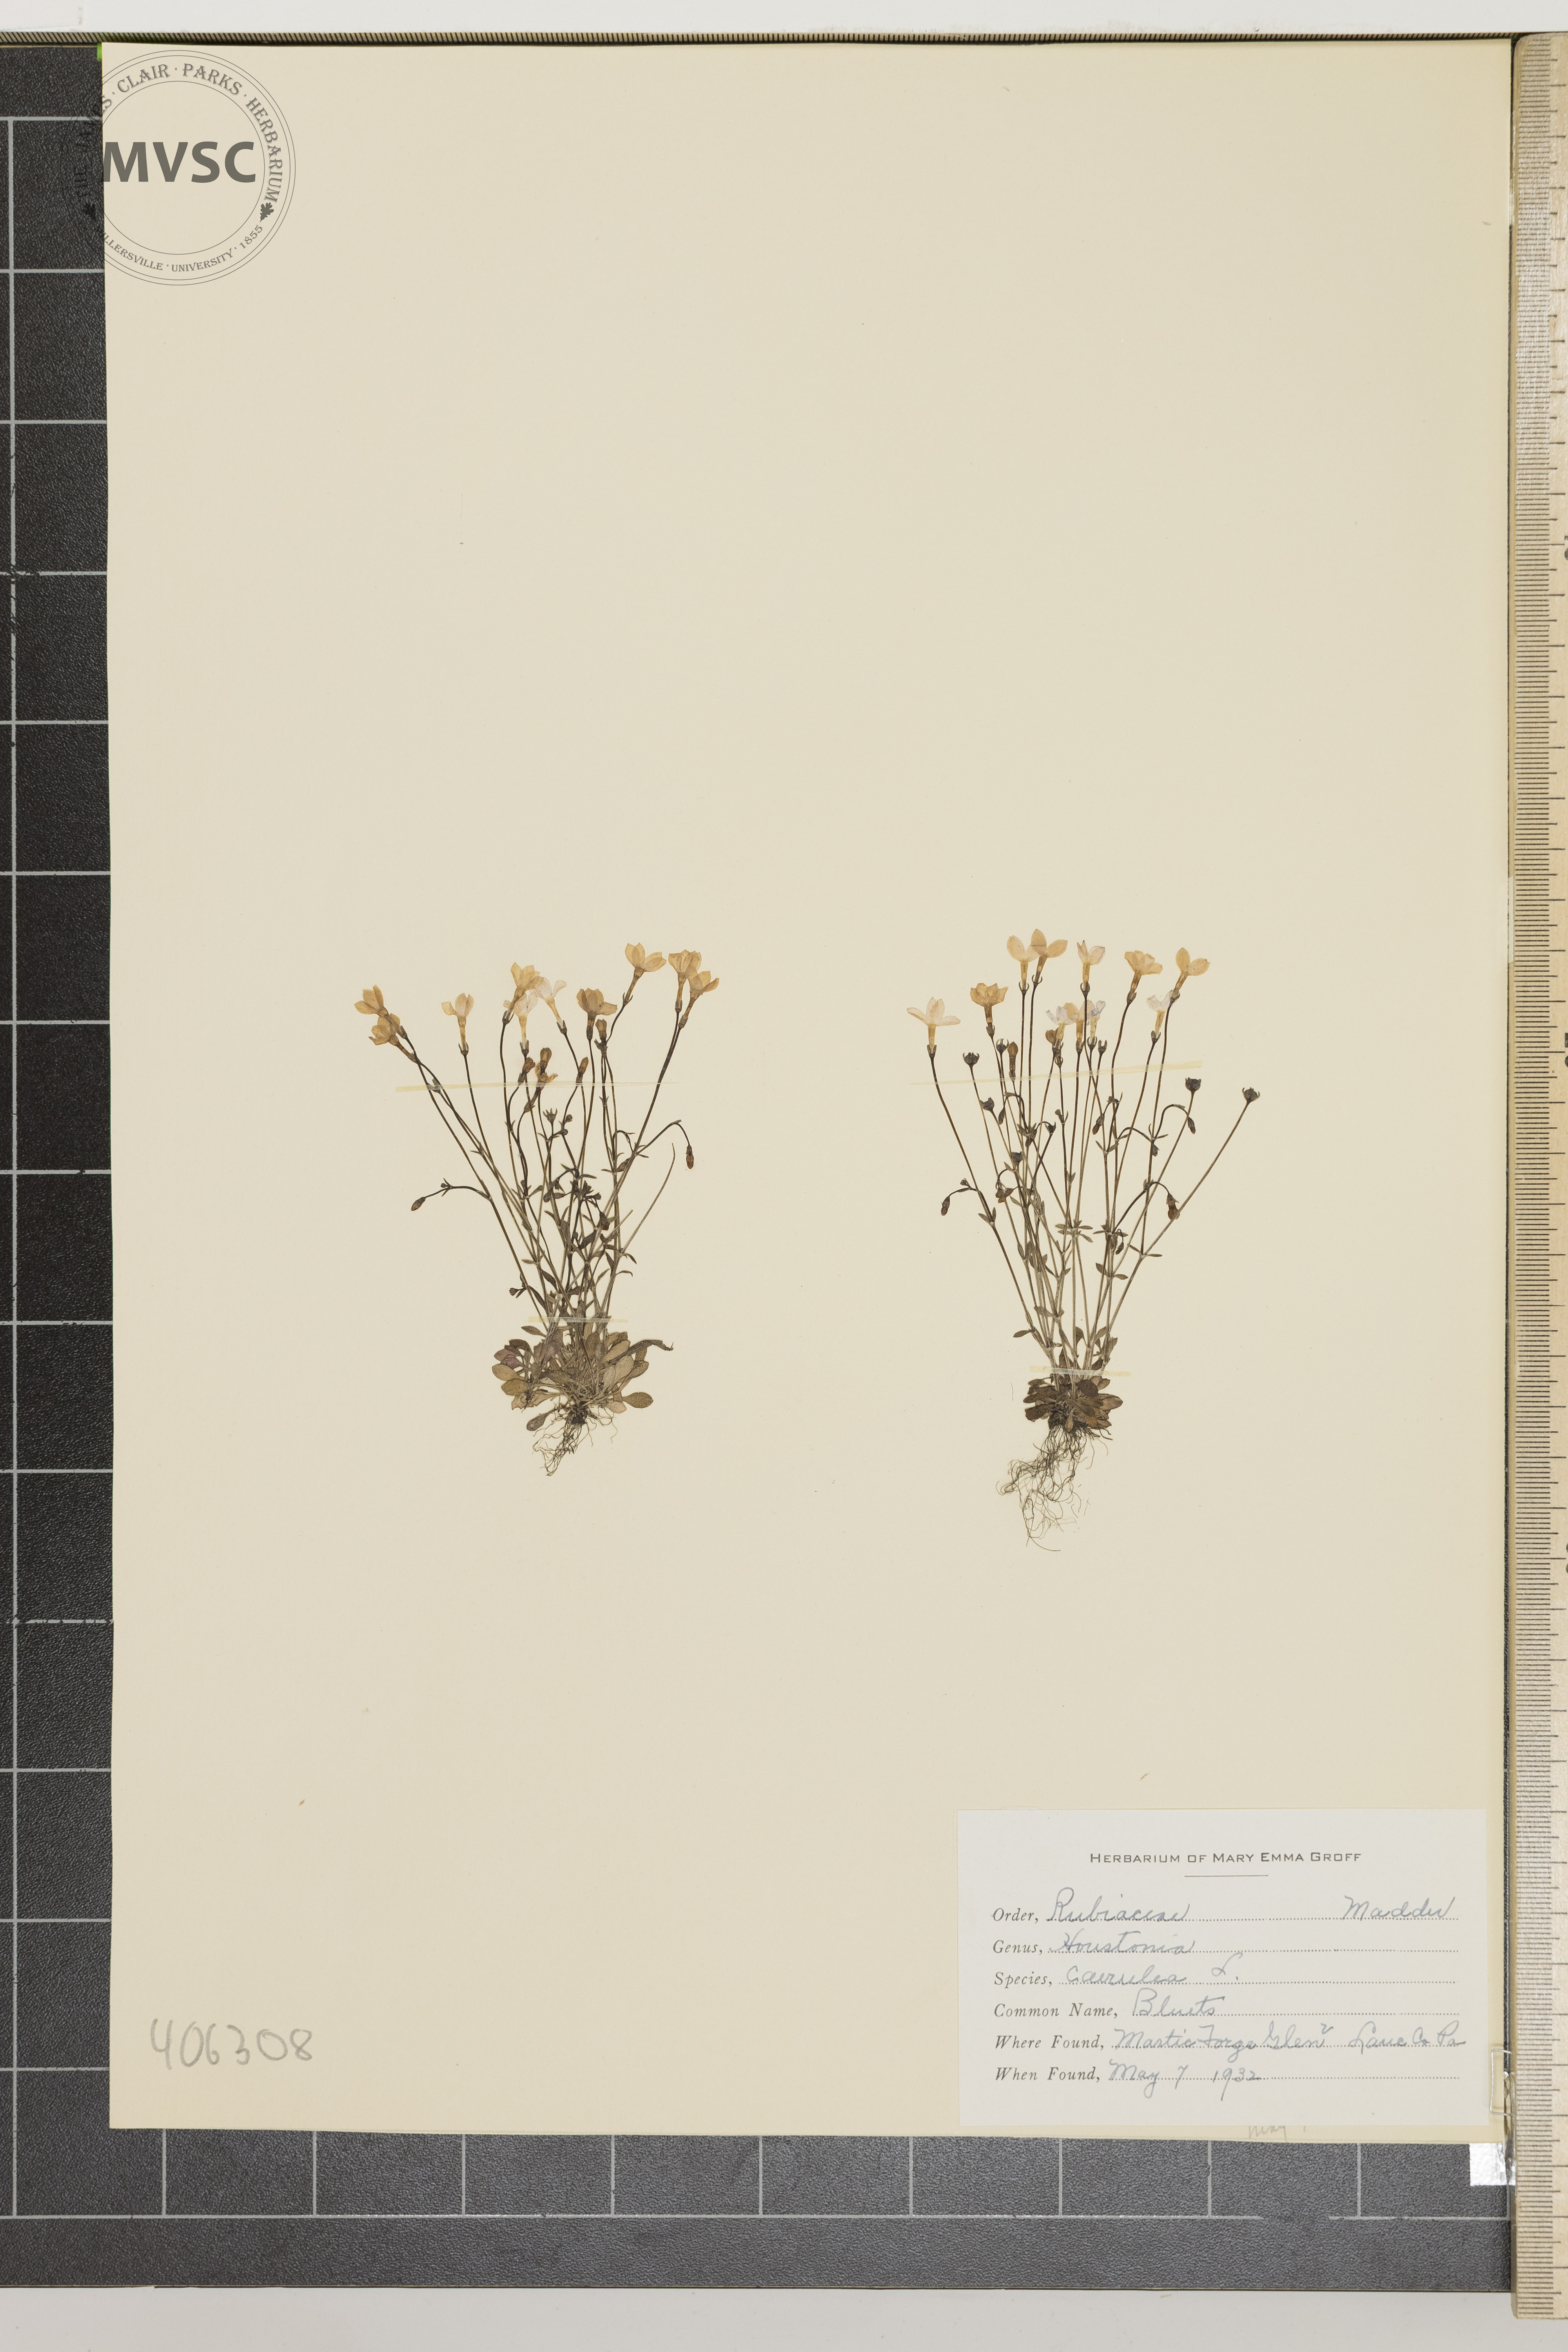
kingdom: Plantae
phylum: Tracheophyta
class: Magnoliopsida
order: Gentianales
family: Rubiaceae
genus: Houstonia
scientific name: Houstonia caerulea
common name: Bluets
